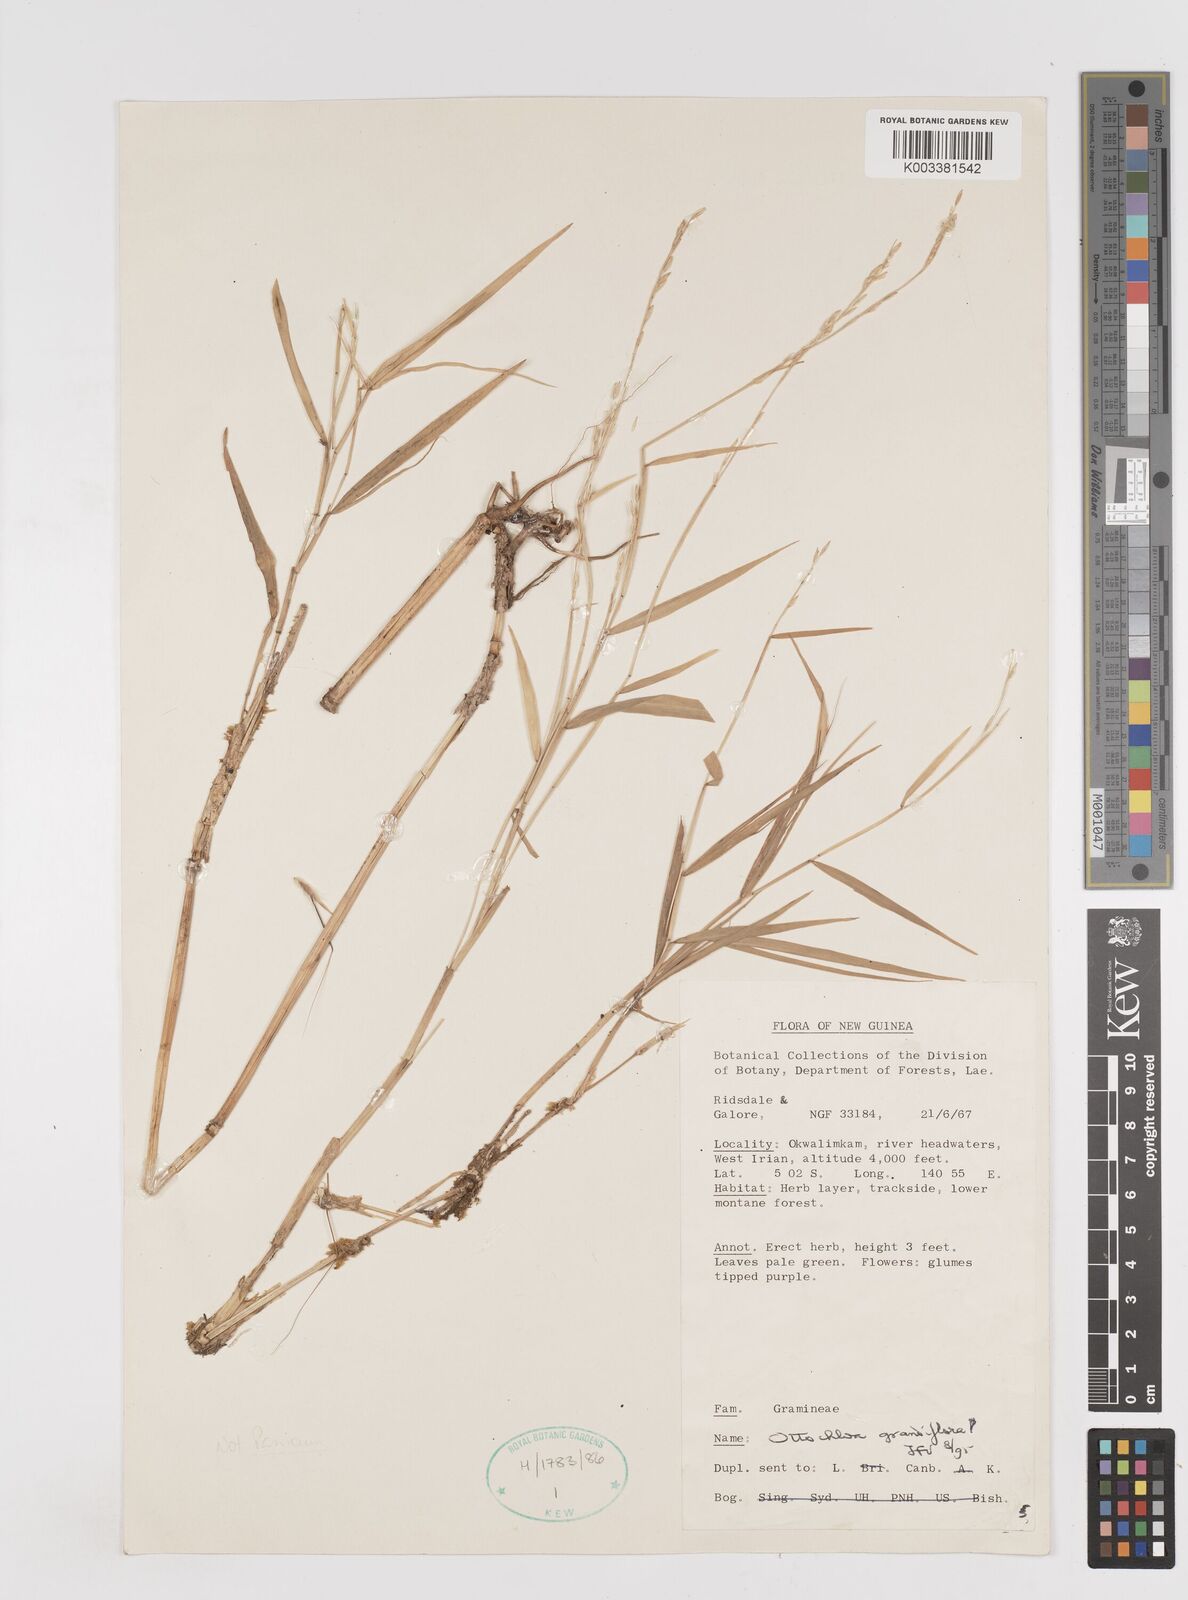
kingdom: Plantae
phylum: Tracheophyta
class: Liliopsida
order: Poales
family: Poaceae
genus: Ottochloa
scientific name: Ottochloa grandiflora
